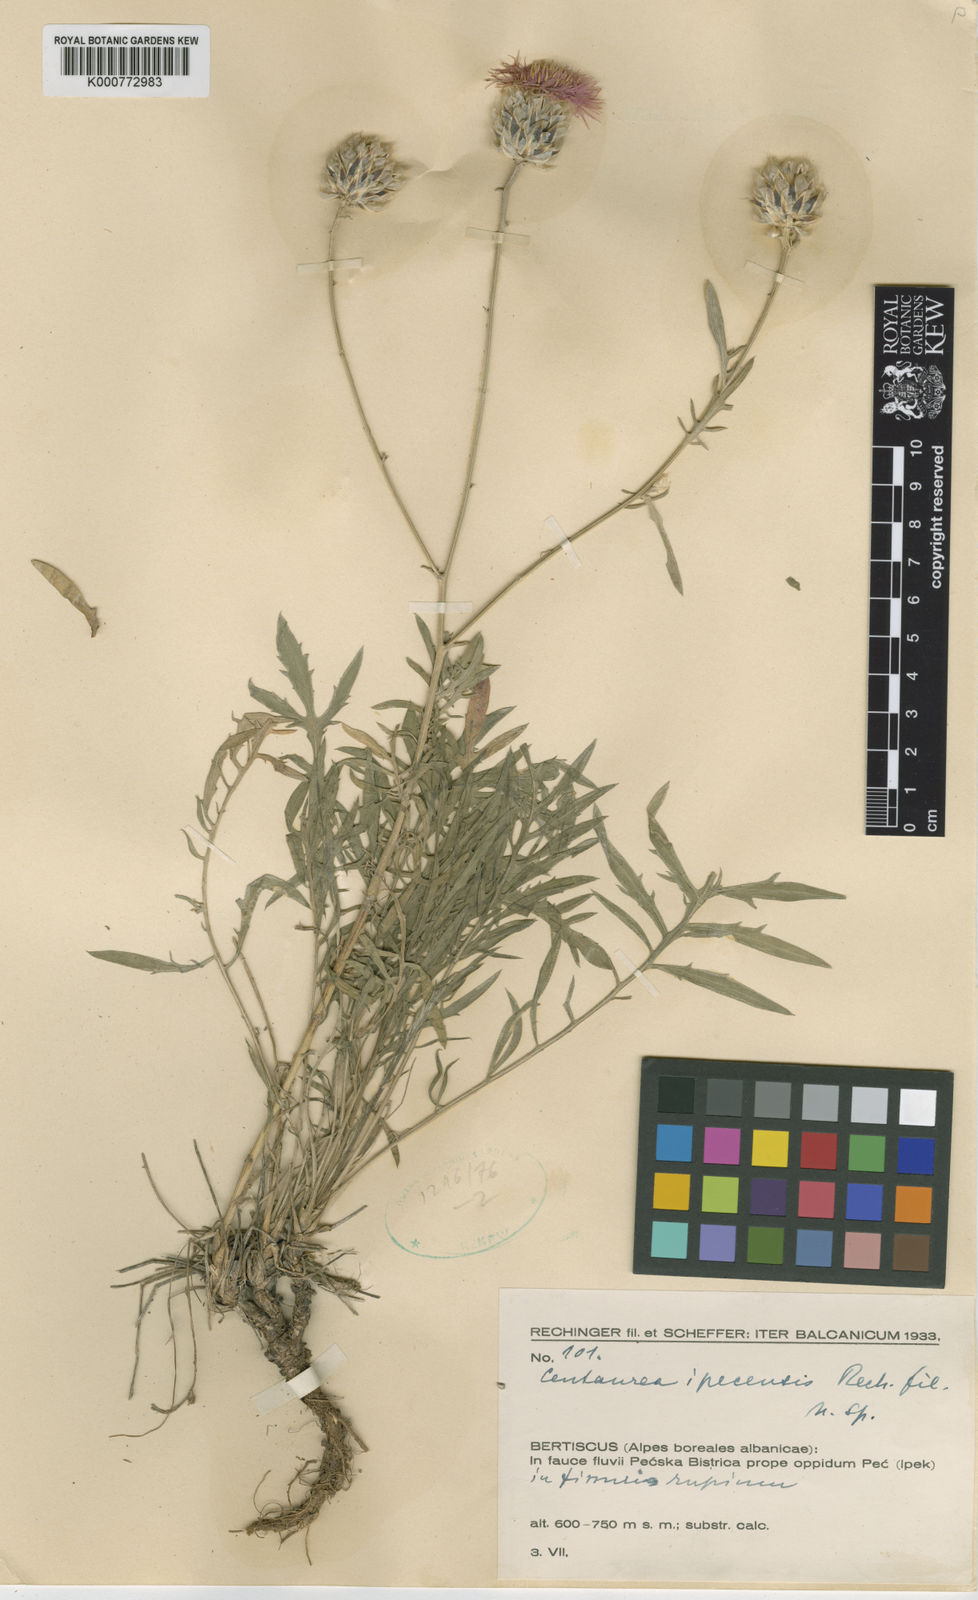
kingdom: Plantae
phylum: Tracheophyta
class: Magnoliopsida
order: Asterales
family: Asteraceae
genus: Centaurea
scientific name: Centaurea alba
